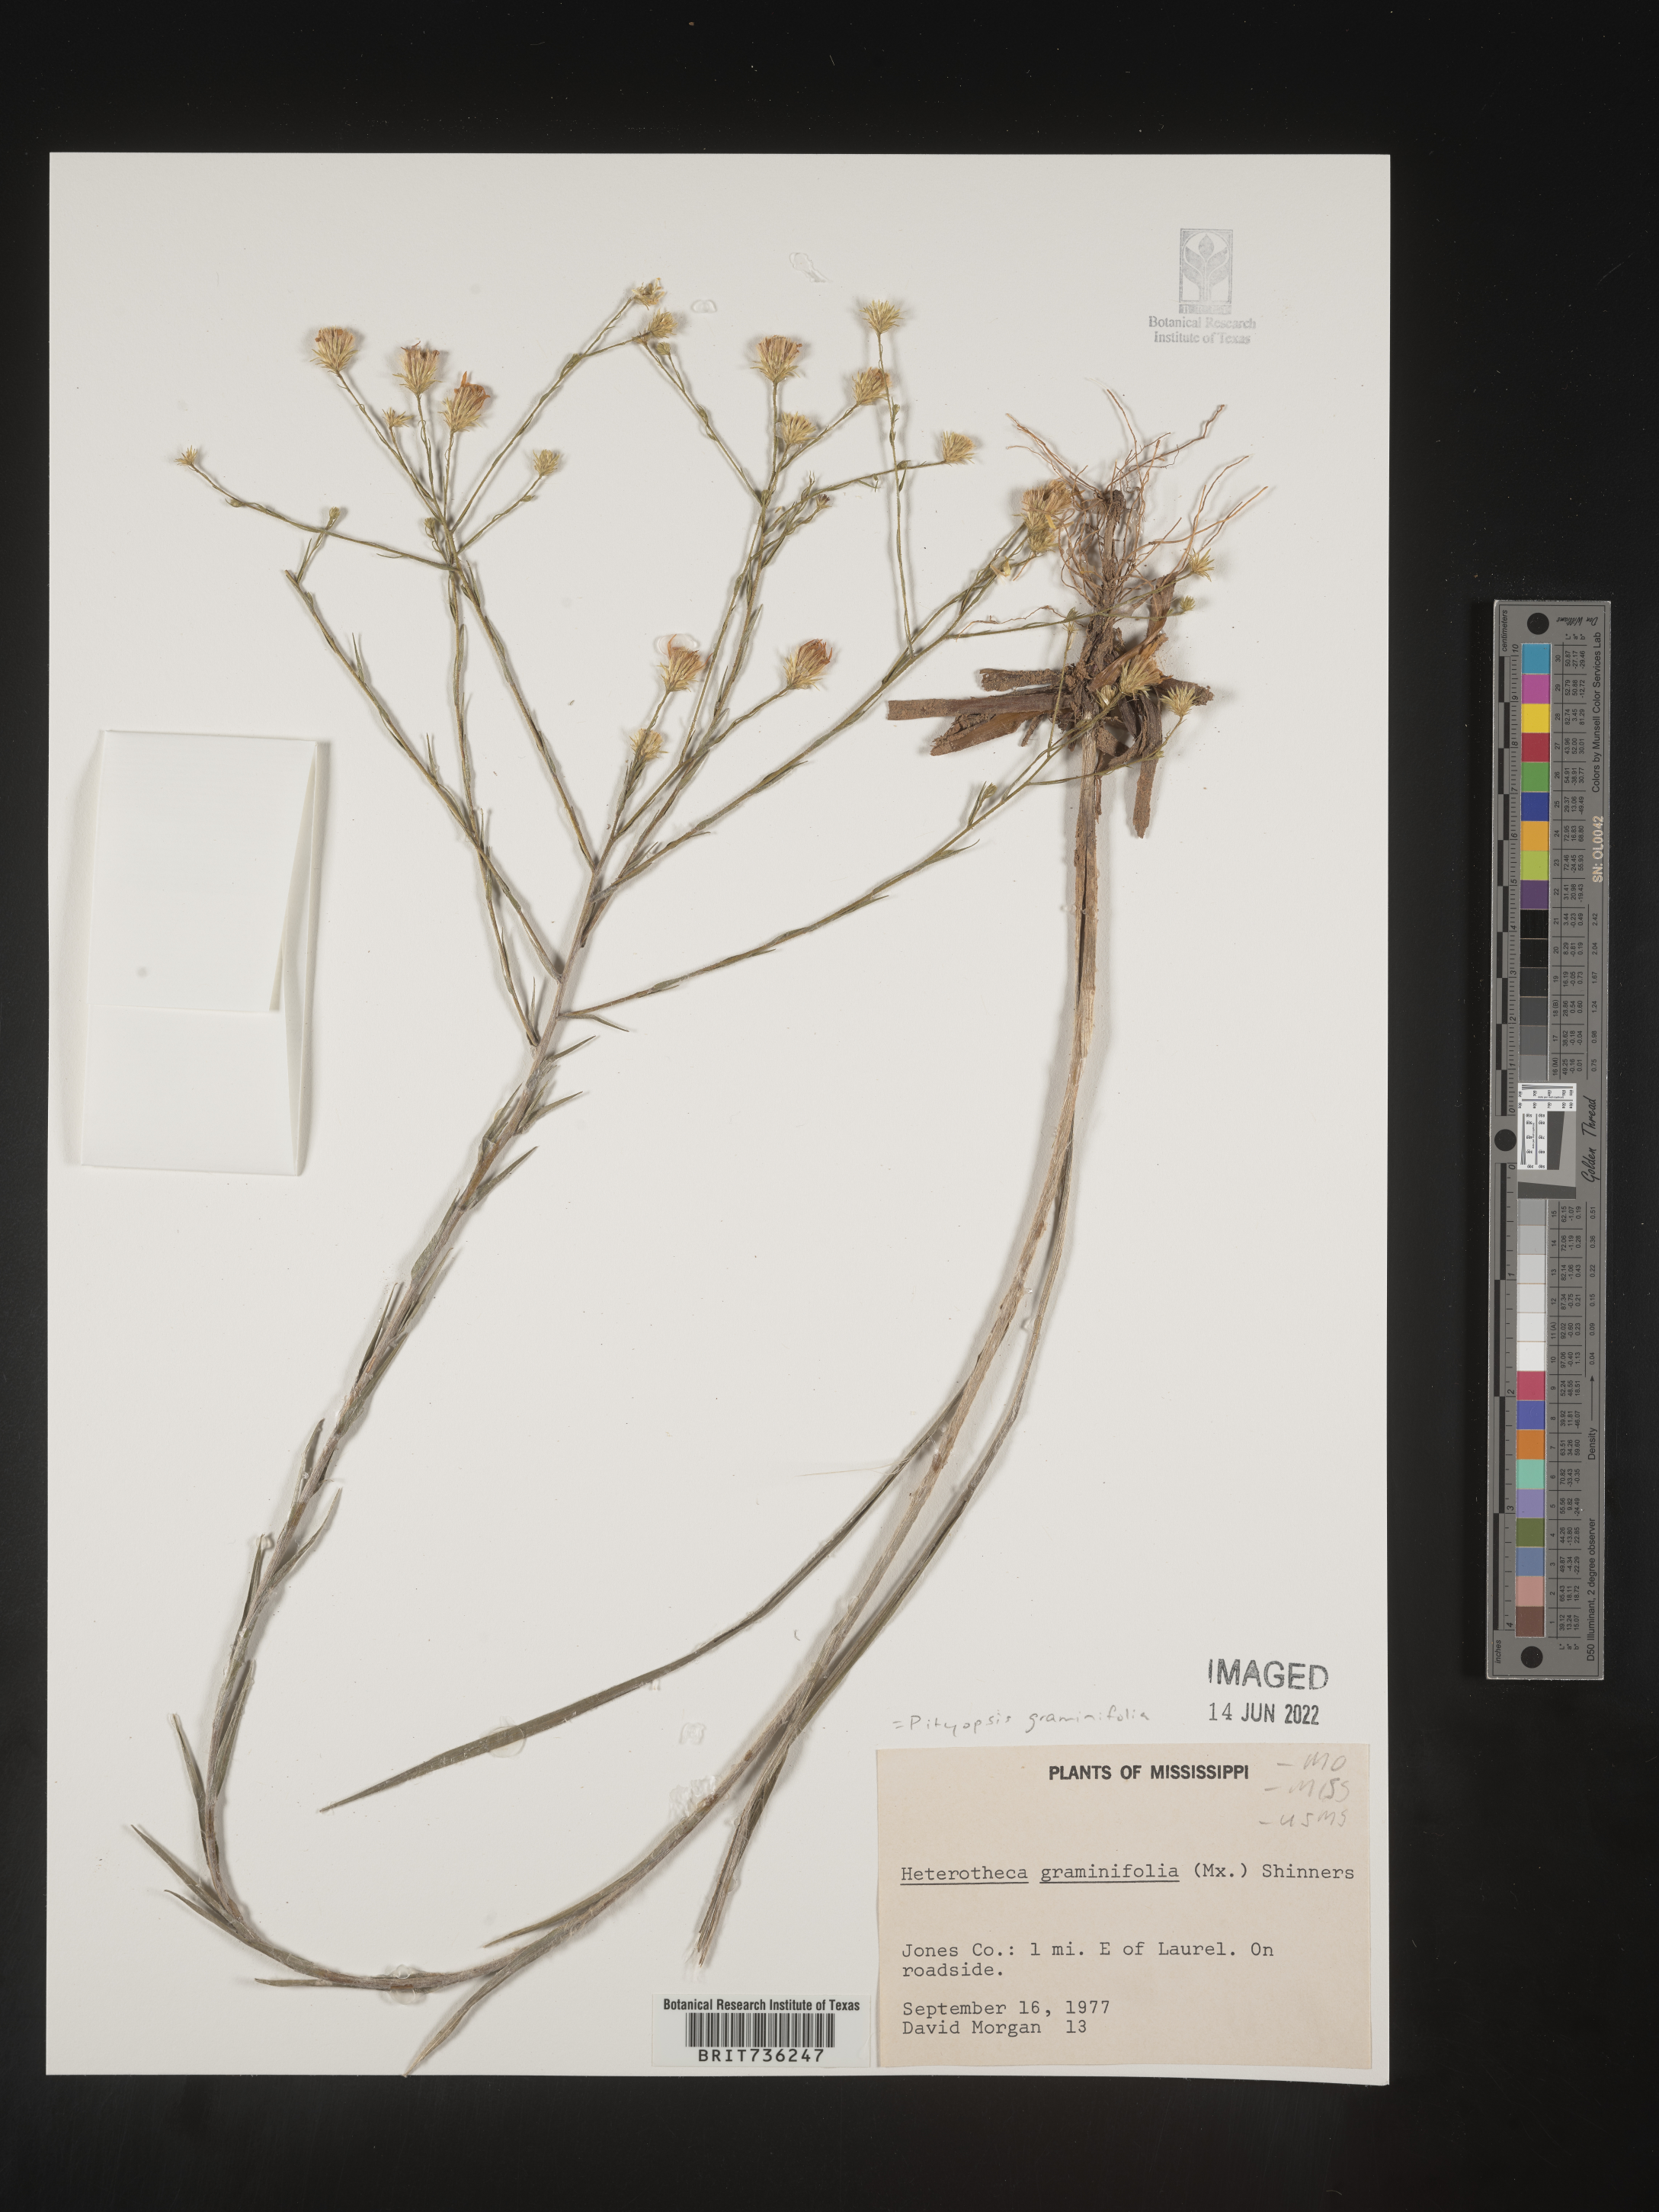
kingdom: Plantae
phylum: Tracheophyta
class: Magnoliopsida
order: Asterales
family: Asteraceae
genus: Pityopsis
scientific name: Pityopsis graminifolia
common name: Grass-leaf golden-aster
